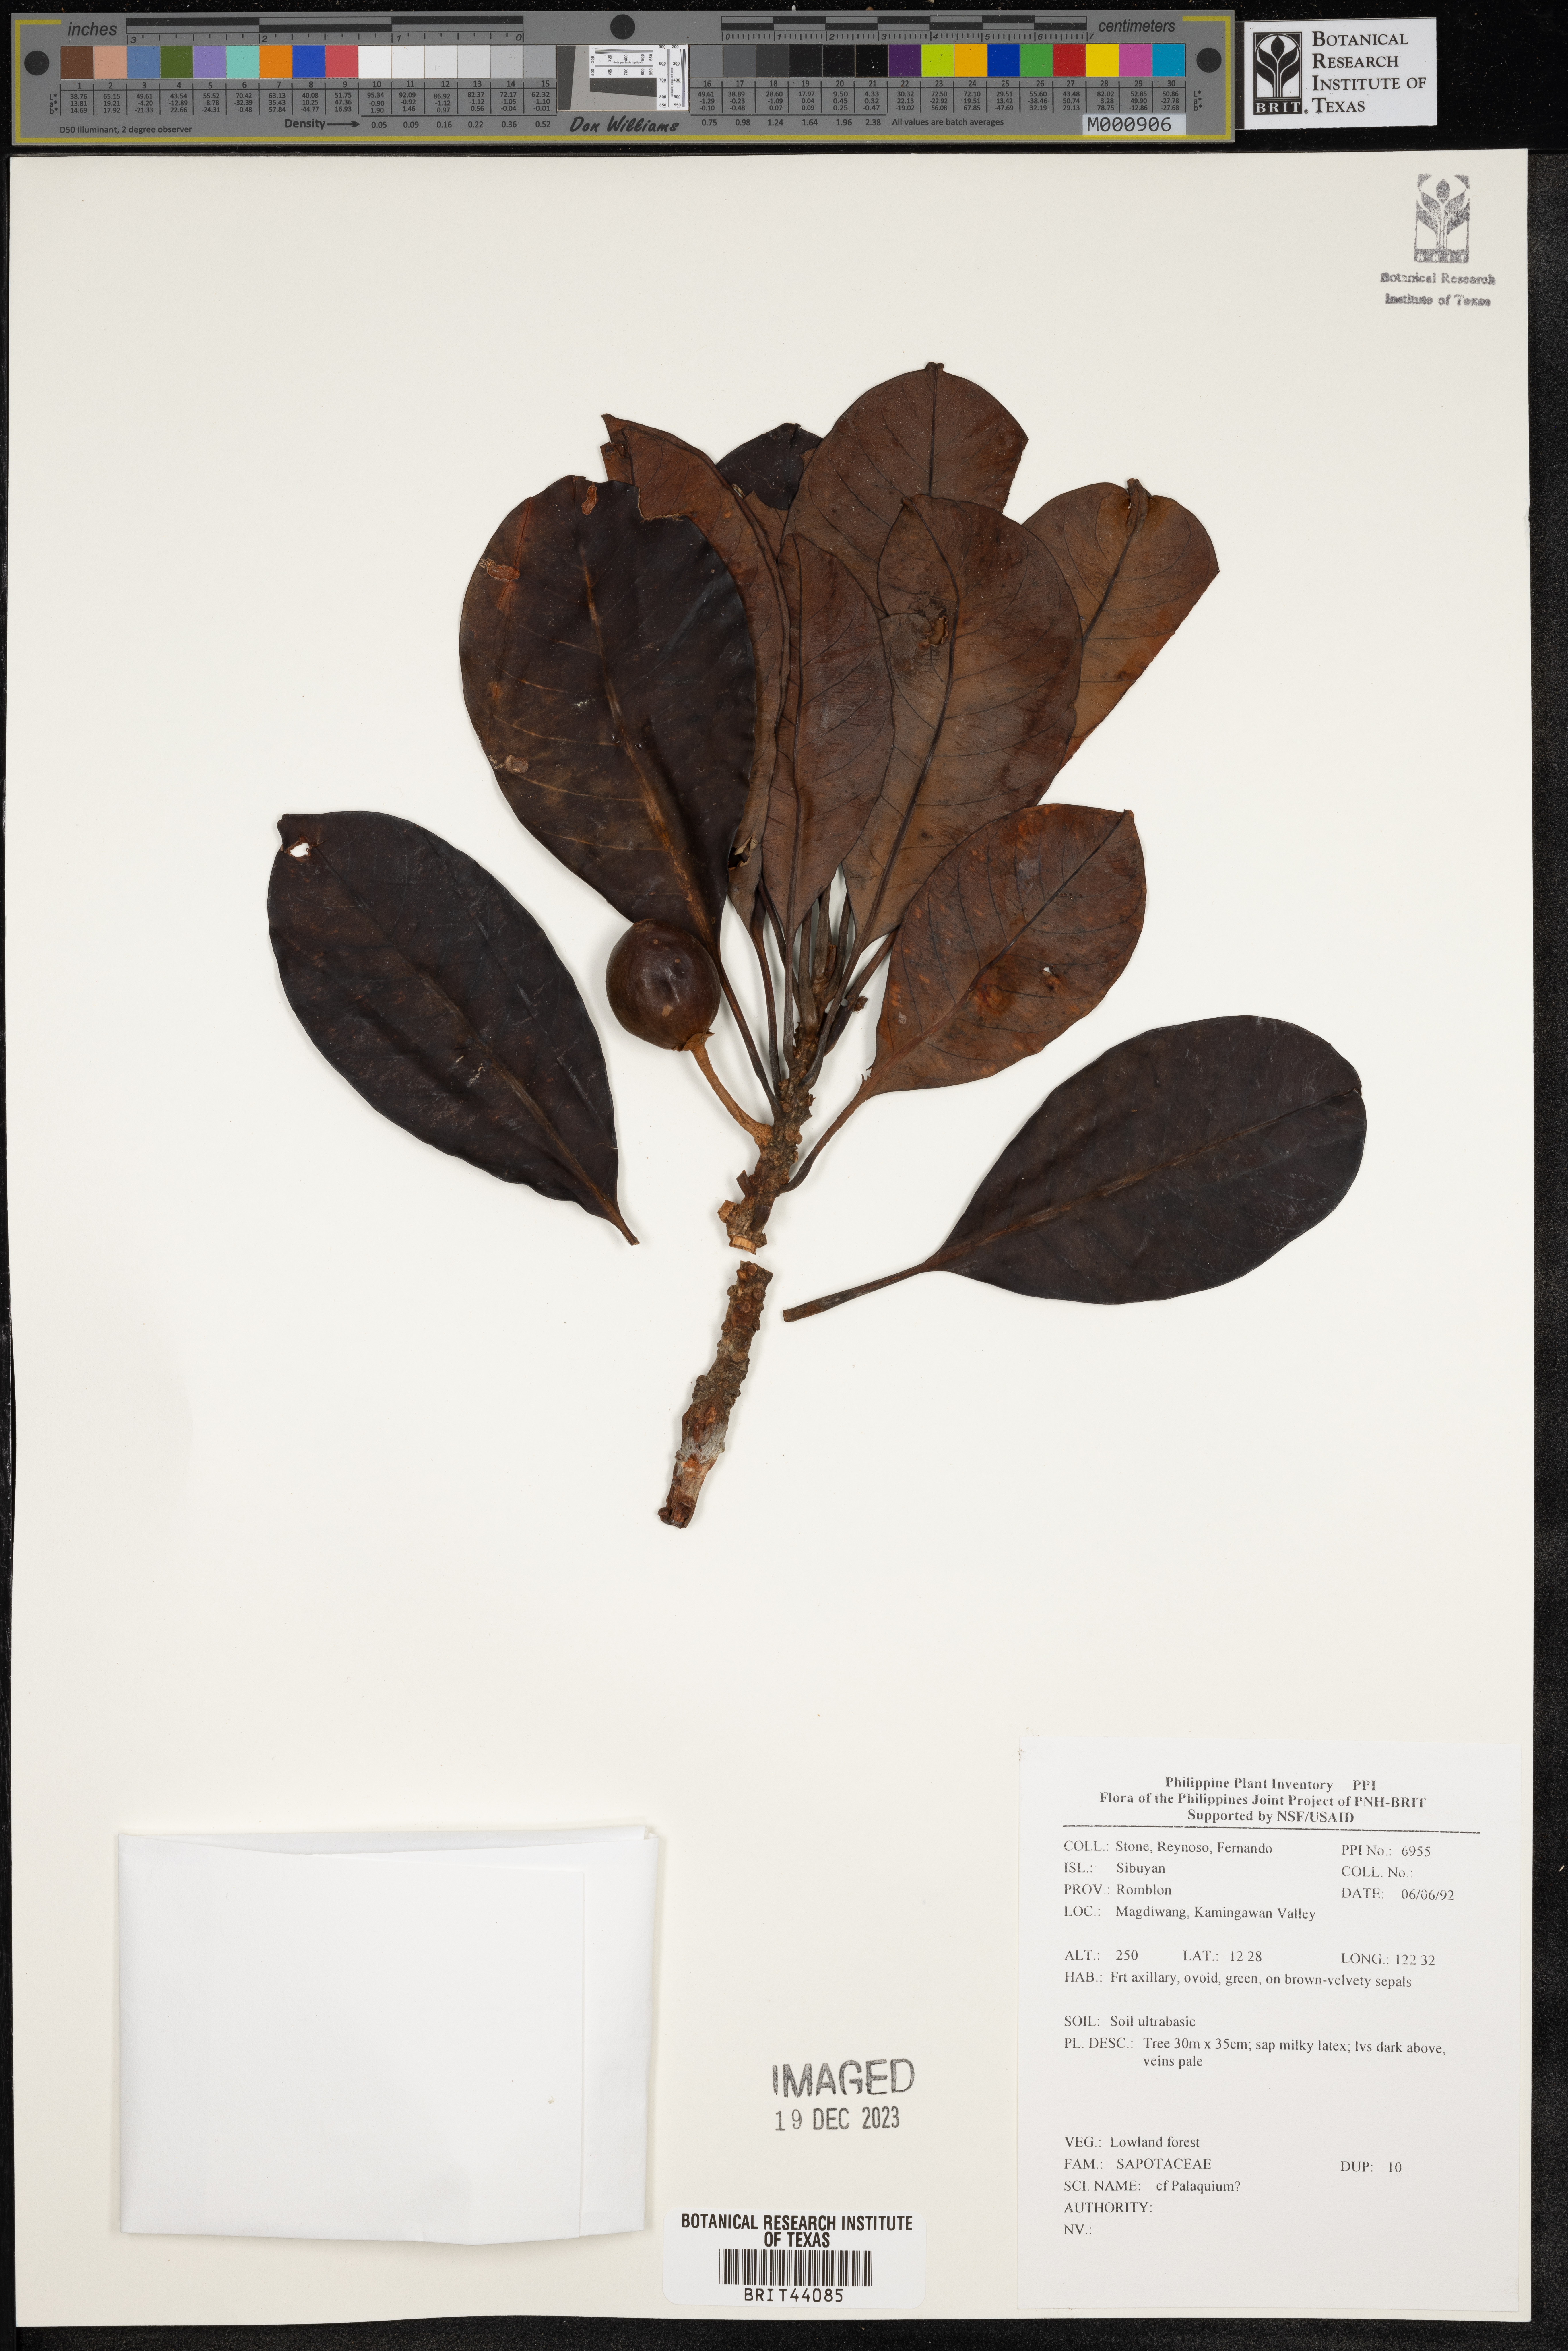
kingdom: Plantae
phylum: Tracheophyta
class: Magnoliopsida
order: Ericales
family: Sapotaceae
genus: Palaquium
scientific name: Palaquium
